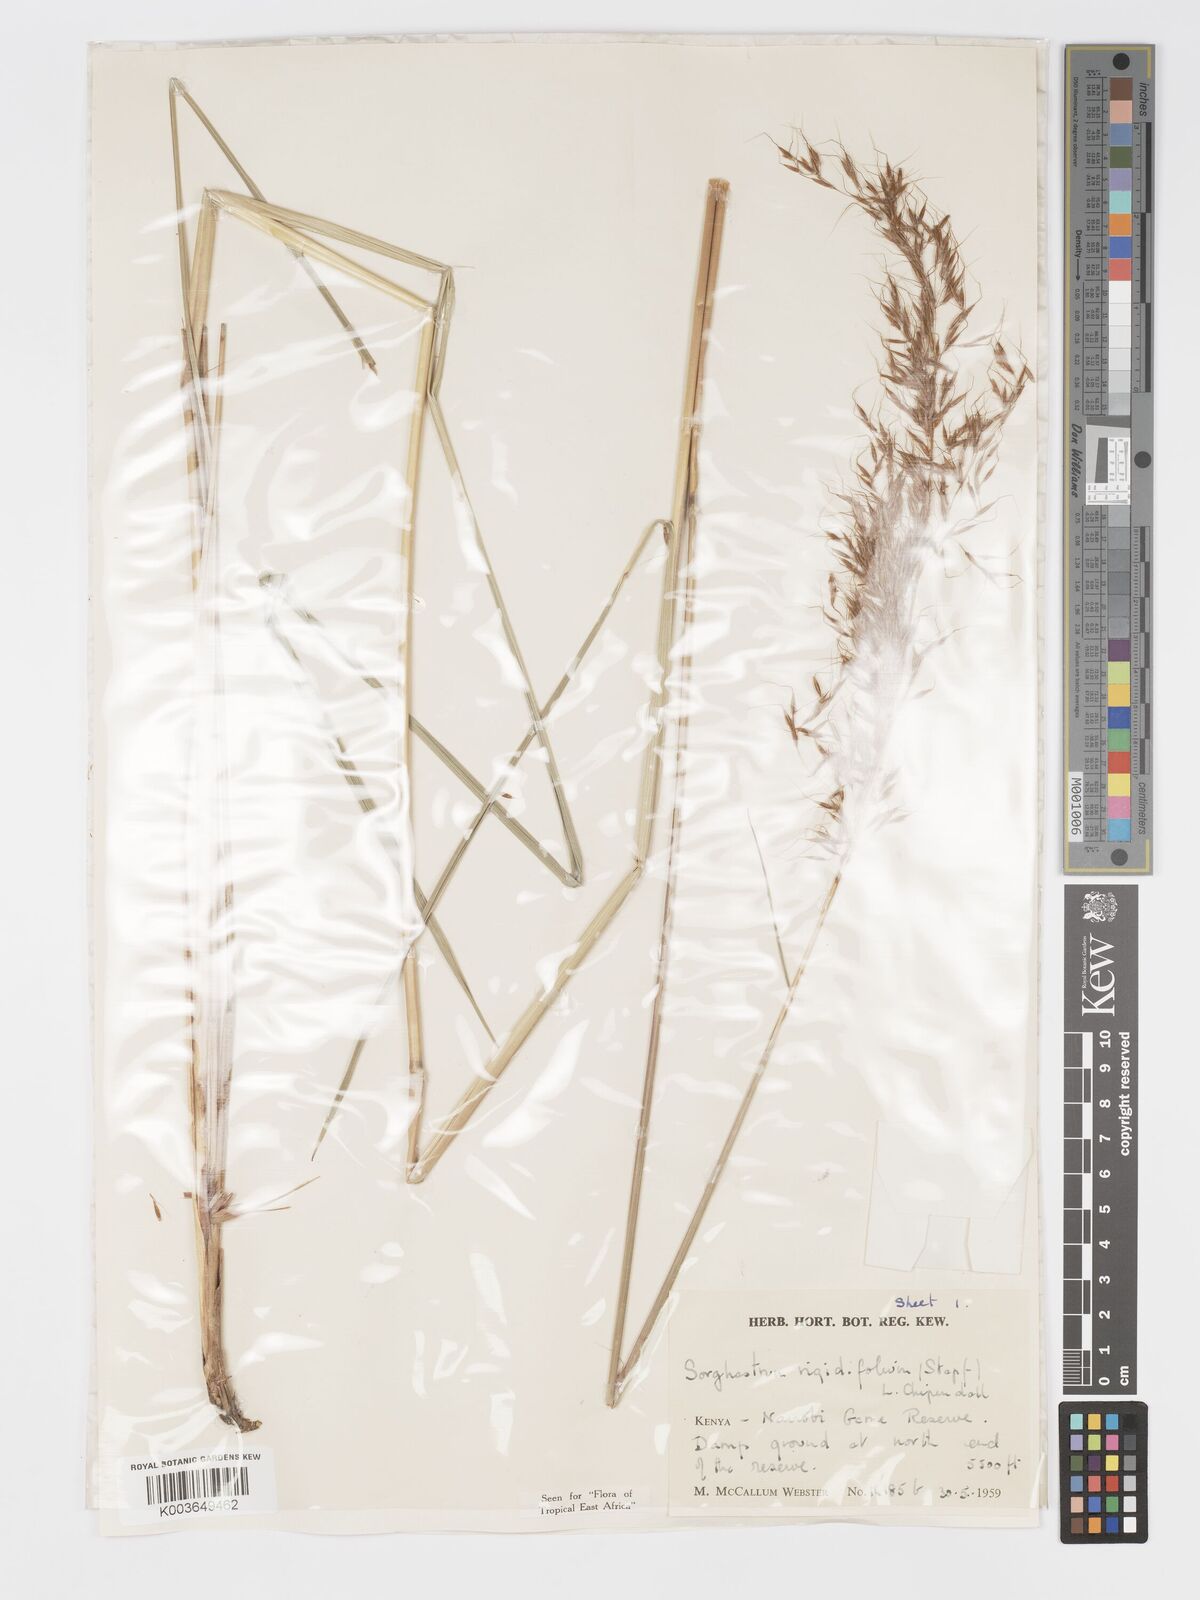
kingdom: Plantae
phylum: Tracheophyta
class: Liliopsida
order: Poales
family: Poaceae
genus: Sorghastrum
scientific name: Sorghastrum stipoides
